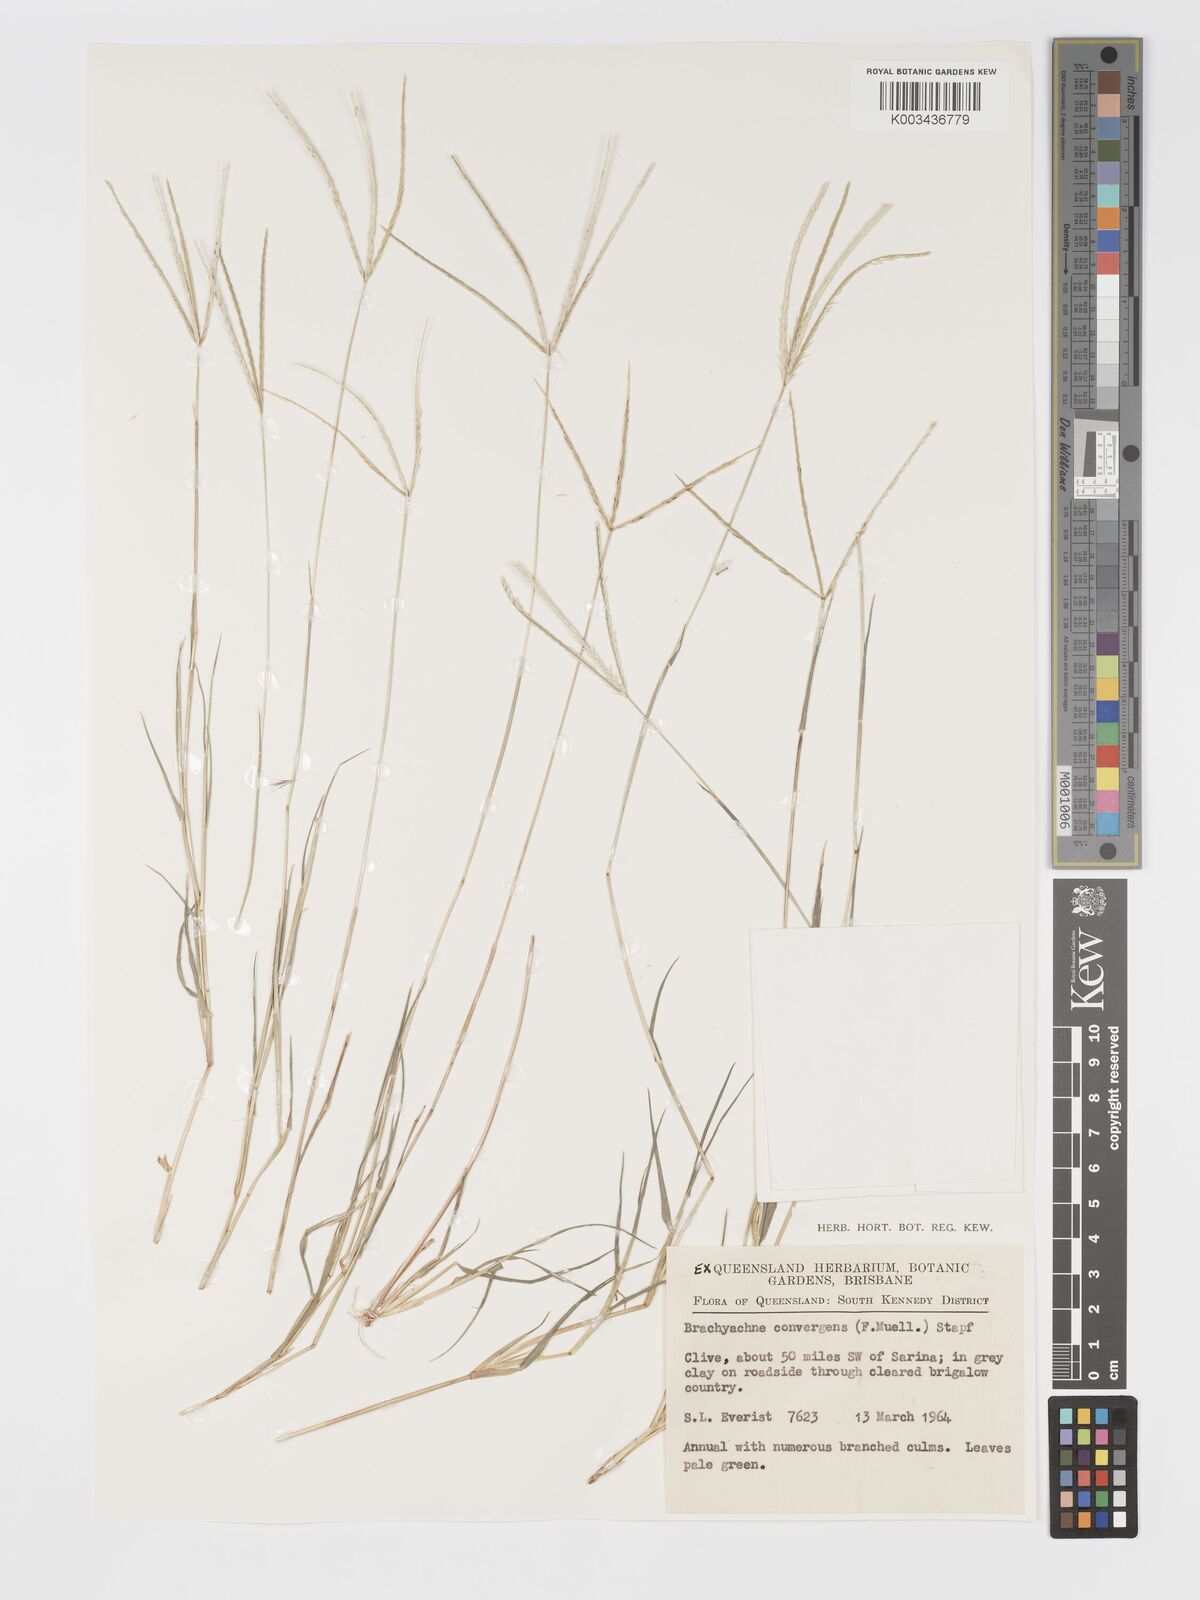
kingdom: Plantae
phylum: Tracheophyta
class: Liliopsida
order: Poales
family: Poaceae
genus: Cynodon
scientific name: Cynodon convergens
